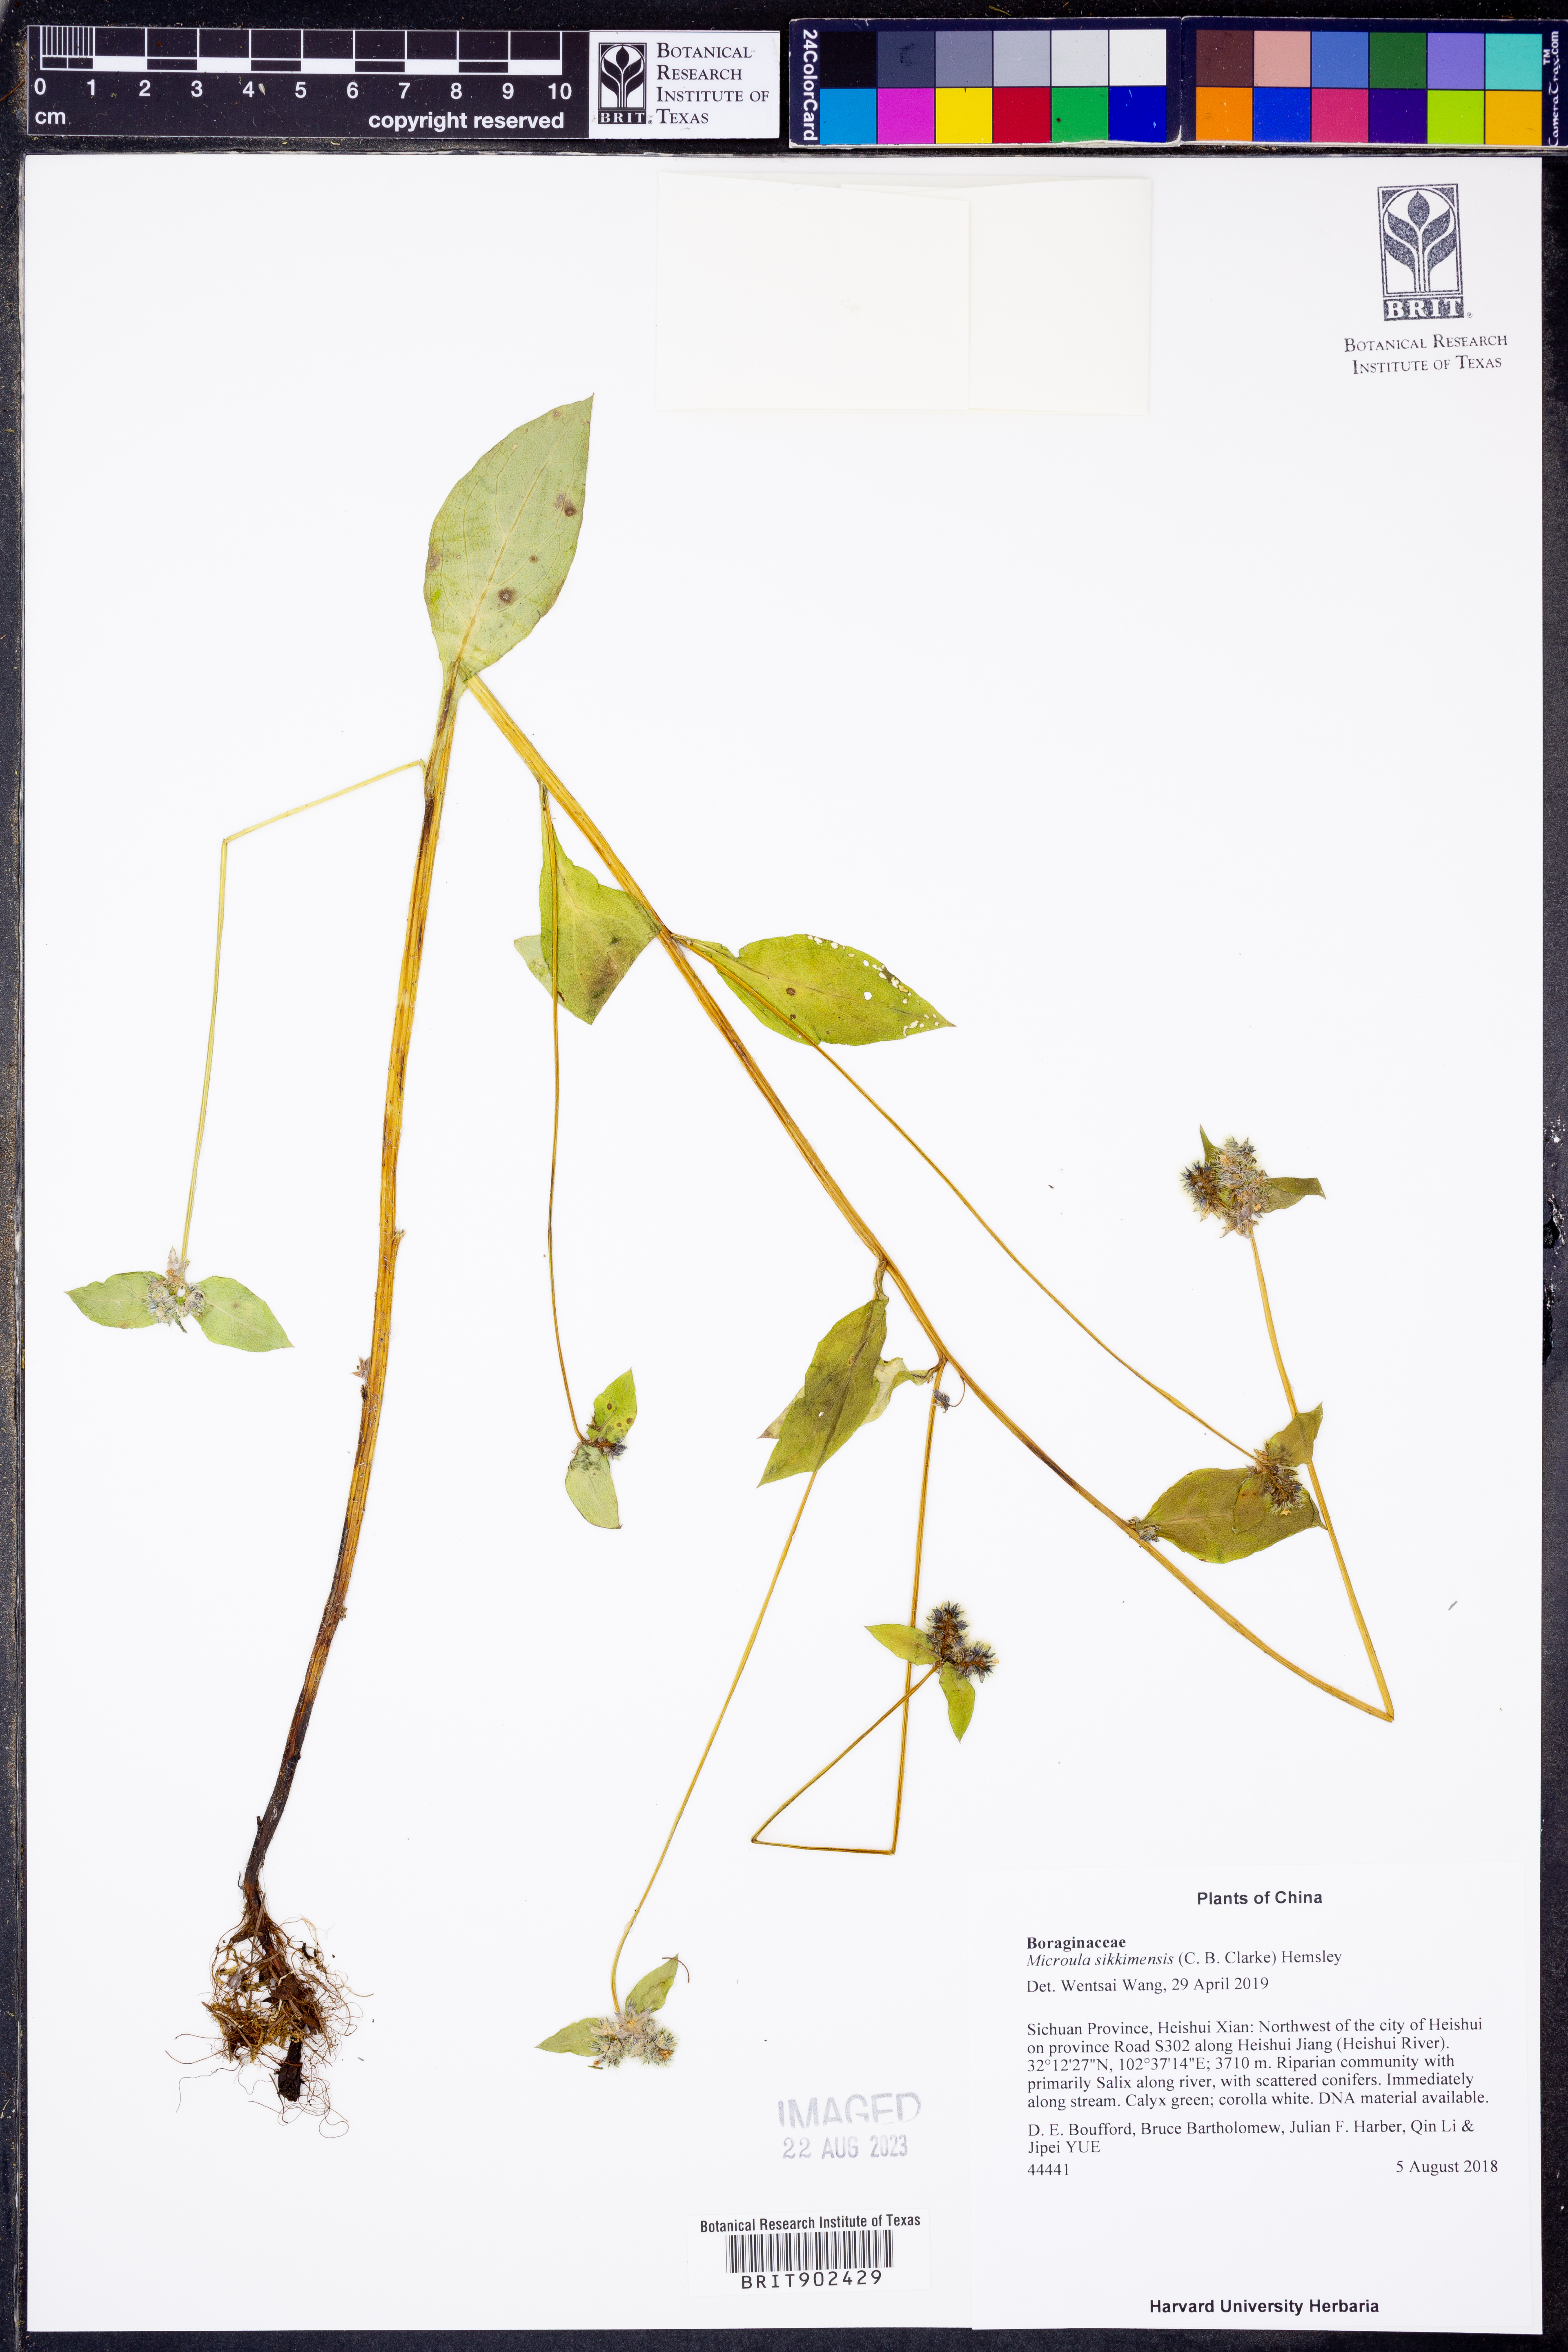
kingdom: Plantae
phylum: Tracheophyta
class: Magnoliopsida
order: Boraginales
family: Boraginaceae
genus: Microula
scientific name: Microula
